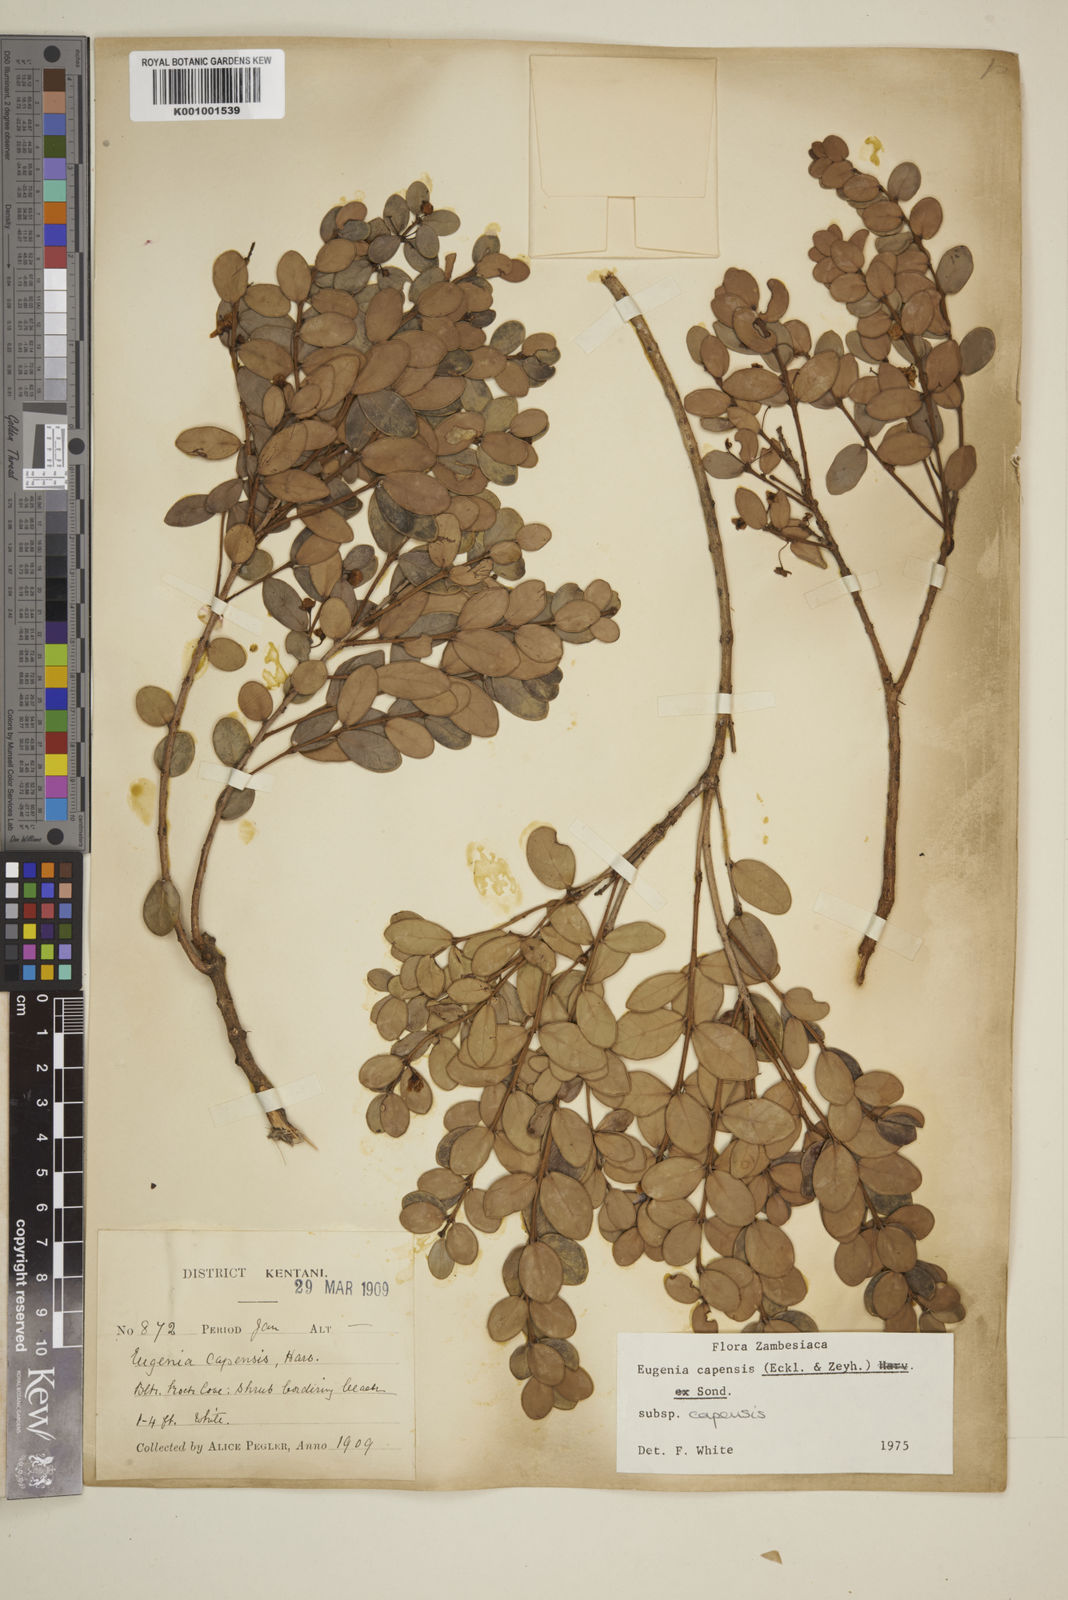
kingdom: Plantae
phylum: Tracheophyta
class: Magnoliopsida
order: Myrtales
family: Myrtaceae
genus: Eugenia
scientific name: Eugenia capensis
